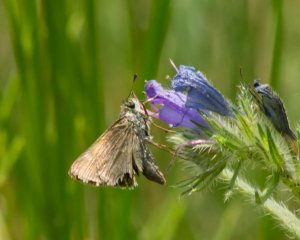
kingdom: Animalia
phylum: Arthropoda
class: Insecta
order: Lepidoptera
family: Hesperiidae
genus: Polites
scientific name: Polites themistocles
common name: Tawny-edged Skipper
